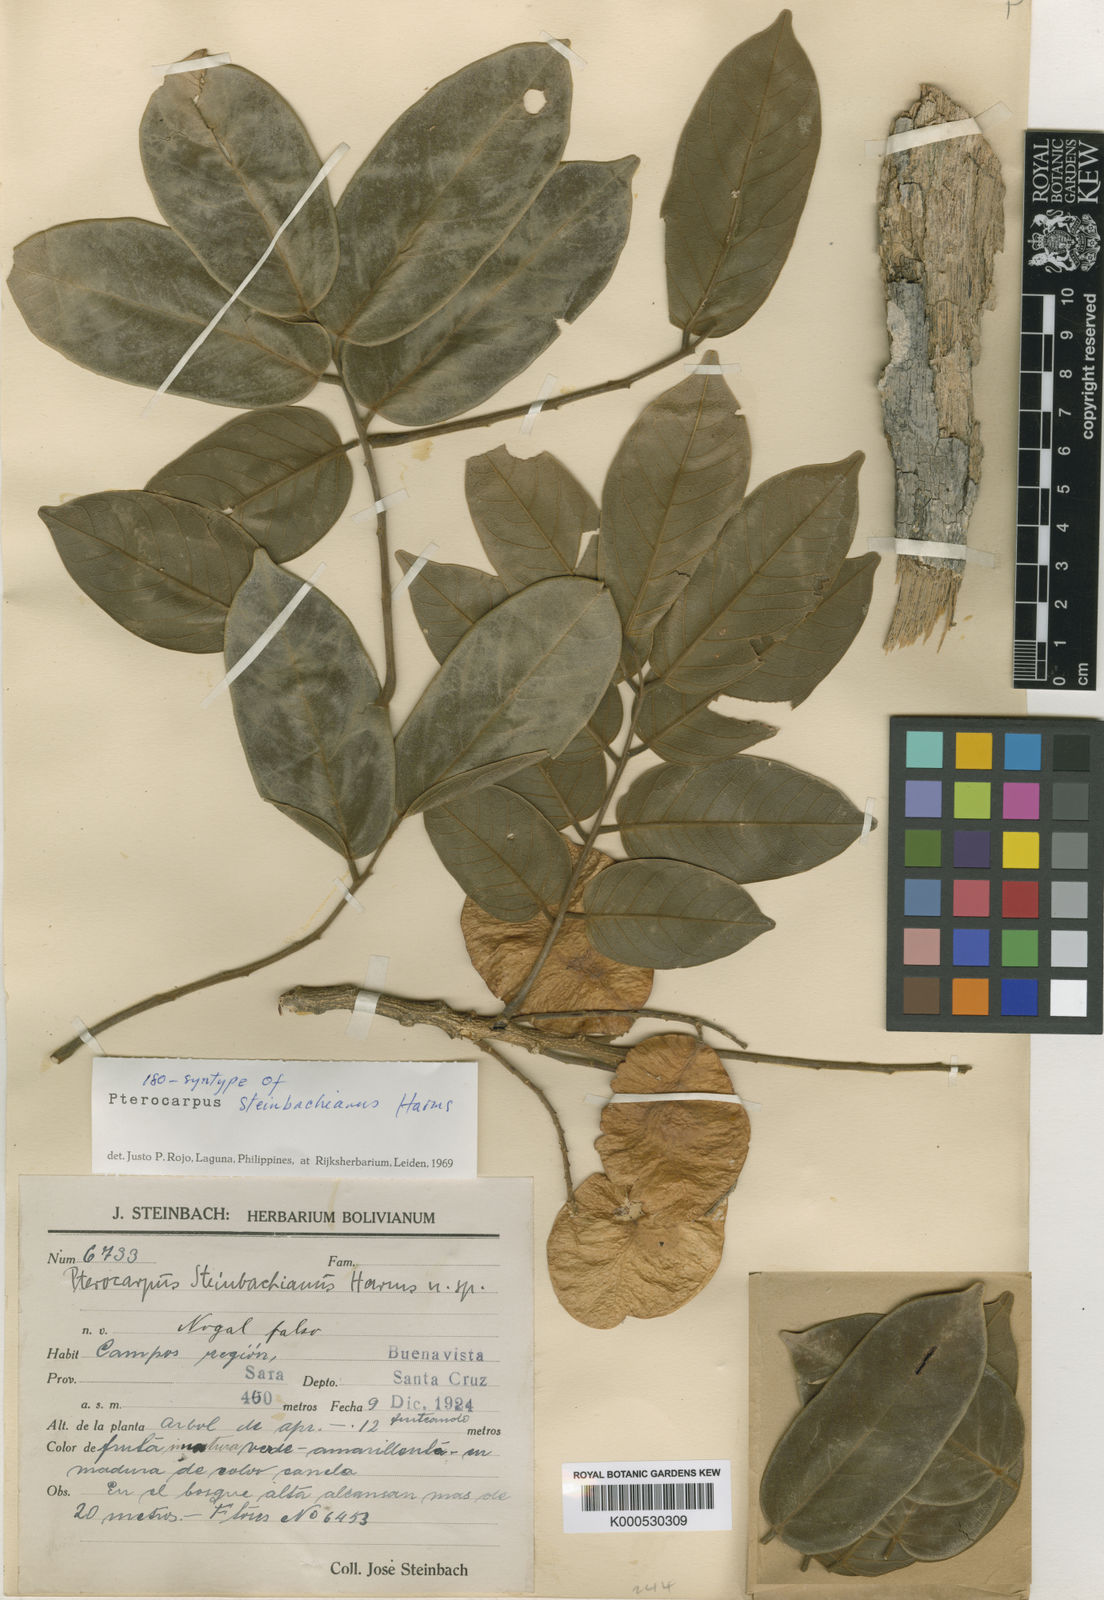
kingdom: Plantae
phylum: Tracheophyta
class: Magnoliopsida
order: Fabales
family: Fabaceae
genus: Pterocarpus
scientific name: Pterocarpus steinbachianus
